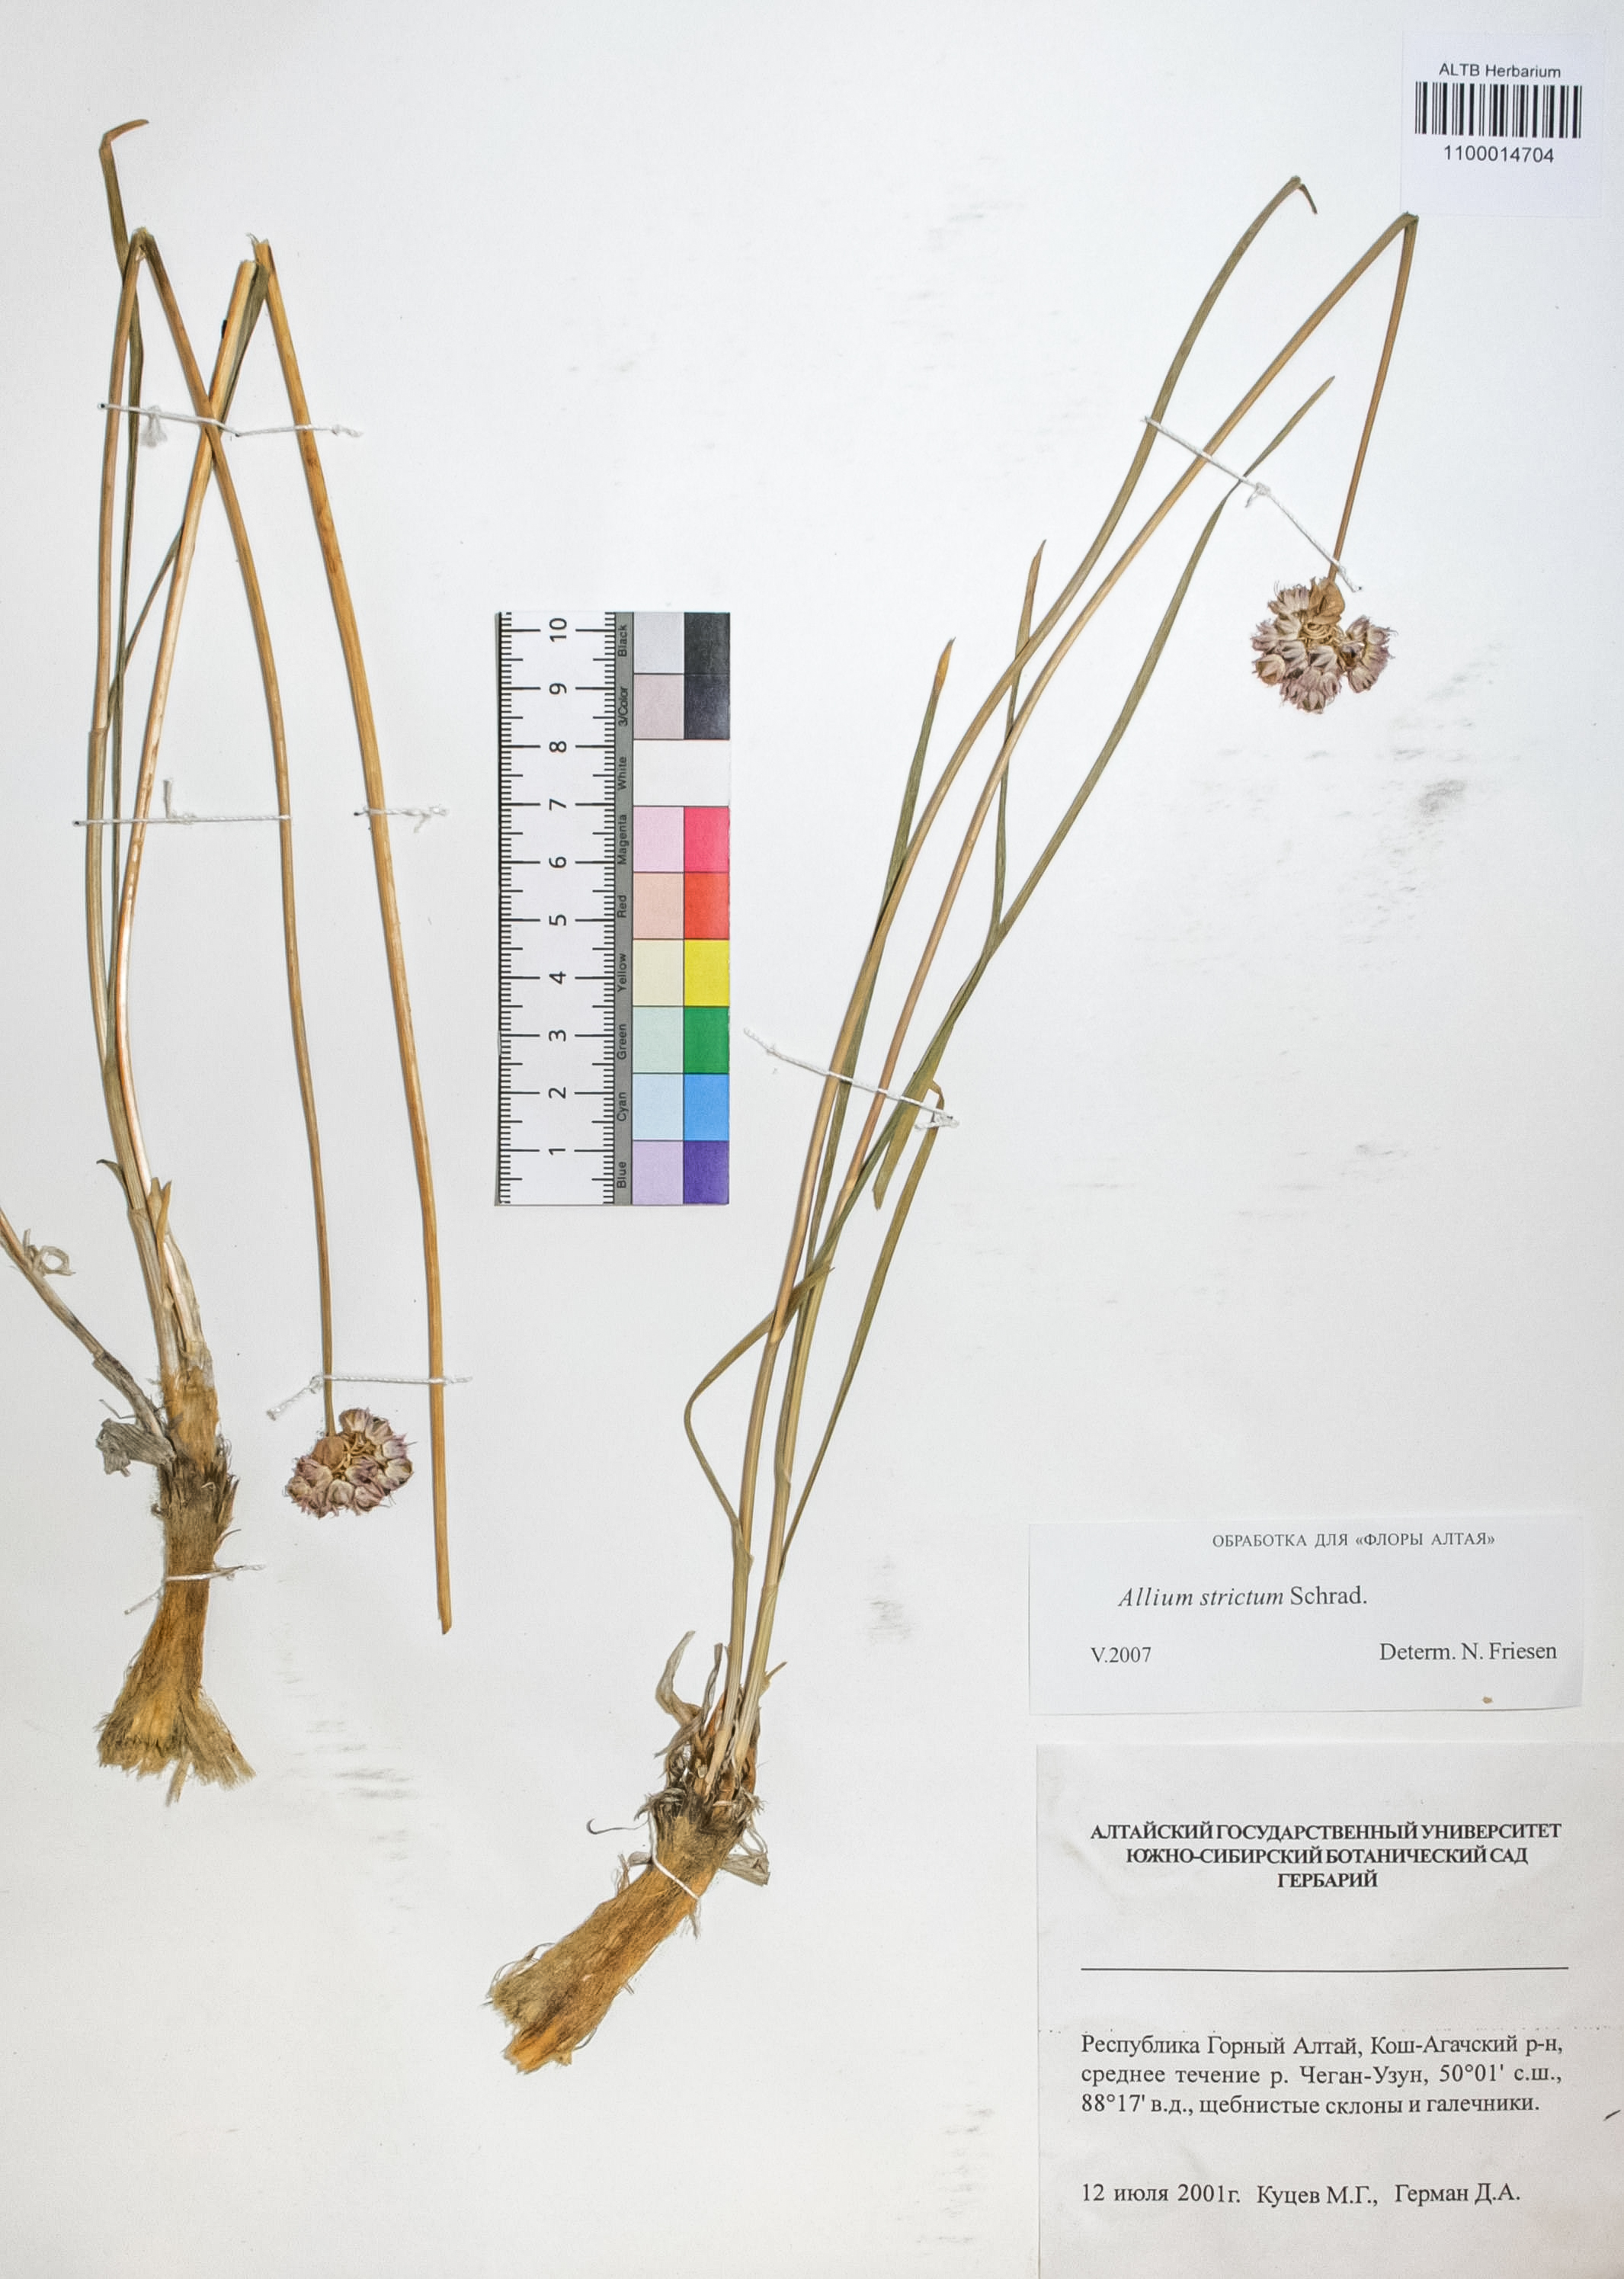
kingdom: Plantae
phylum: Tracheophyta
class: Liliopsida
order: Asparagales
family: Amaryllidaceae
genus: Allium
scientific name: Allium strictum
